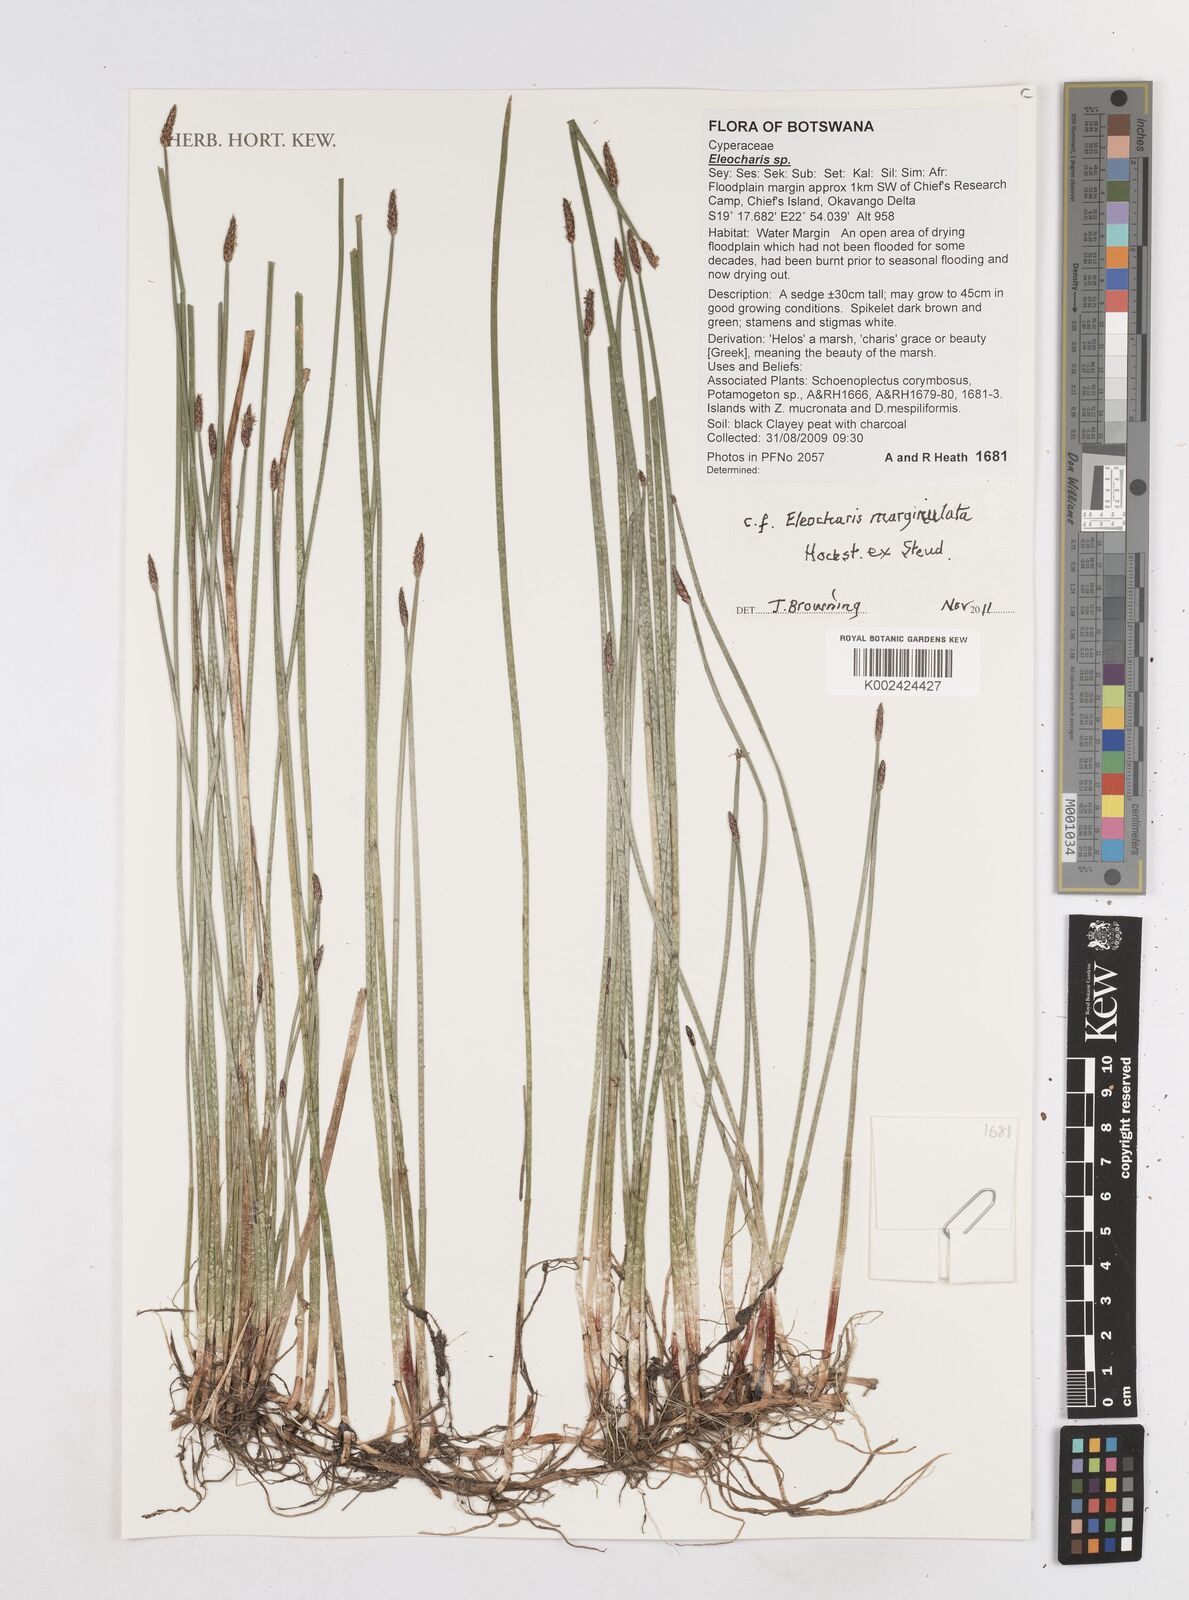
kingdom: Plantae
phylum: Tracheophyta
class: Liliopsida
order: Poales
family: Cyperaceae
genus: Eleocharis
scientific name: Eleocharis marginulata
